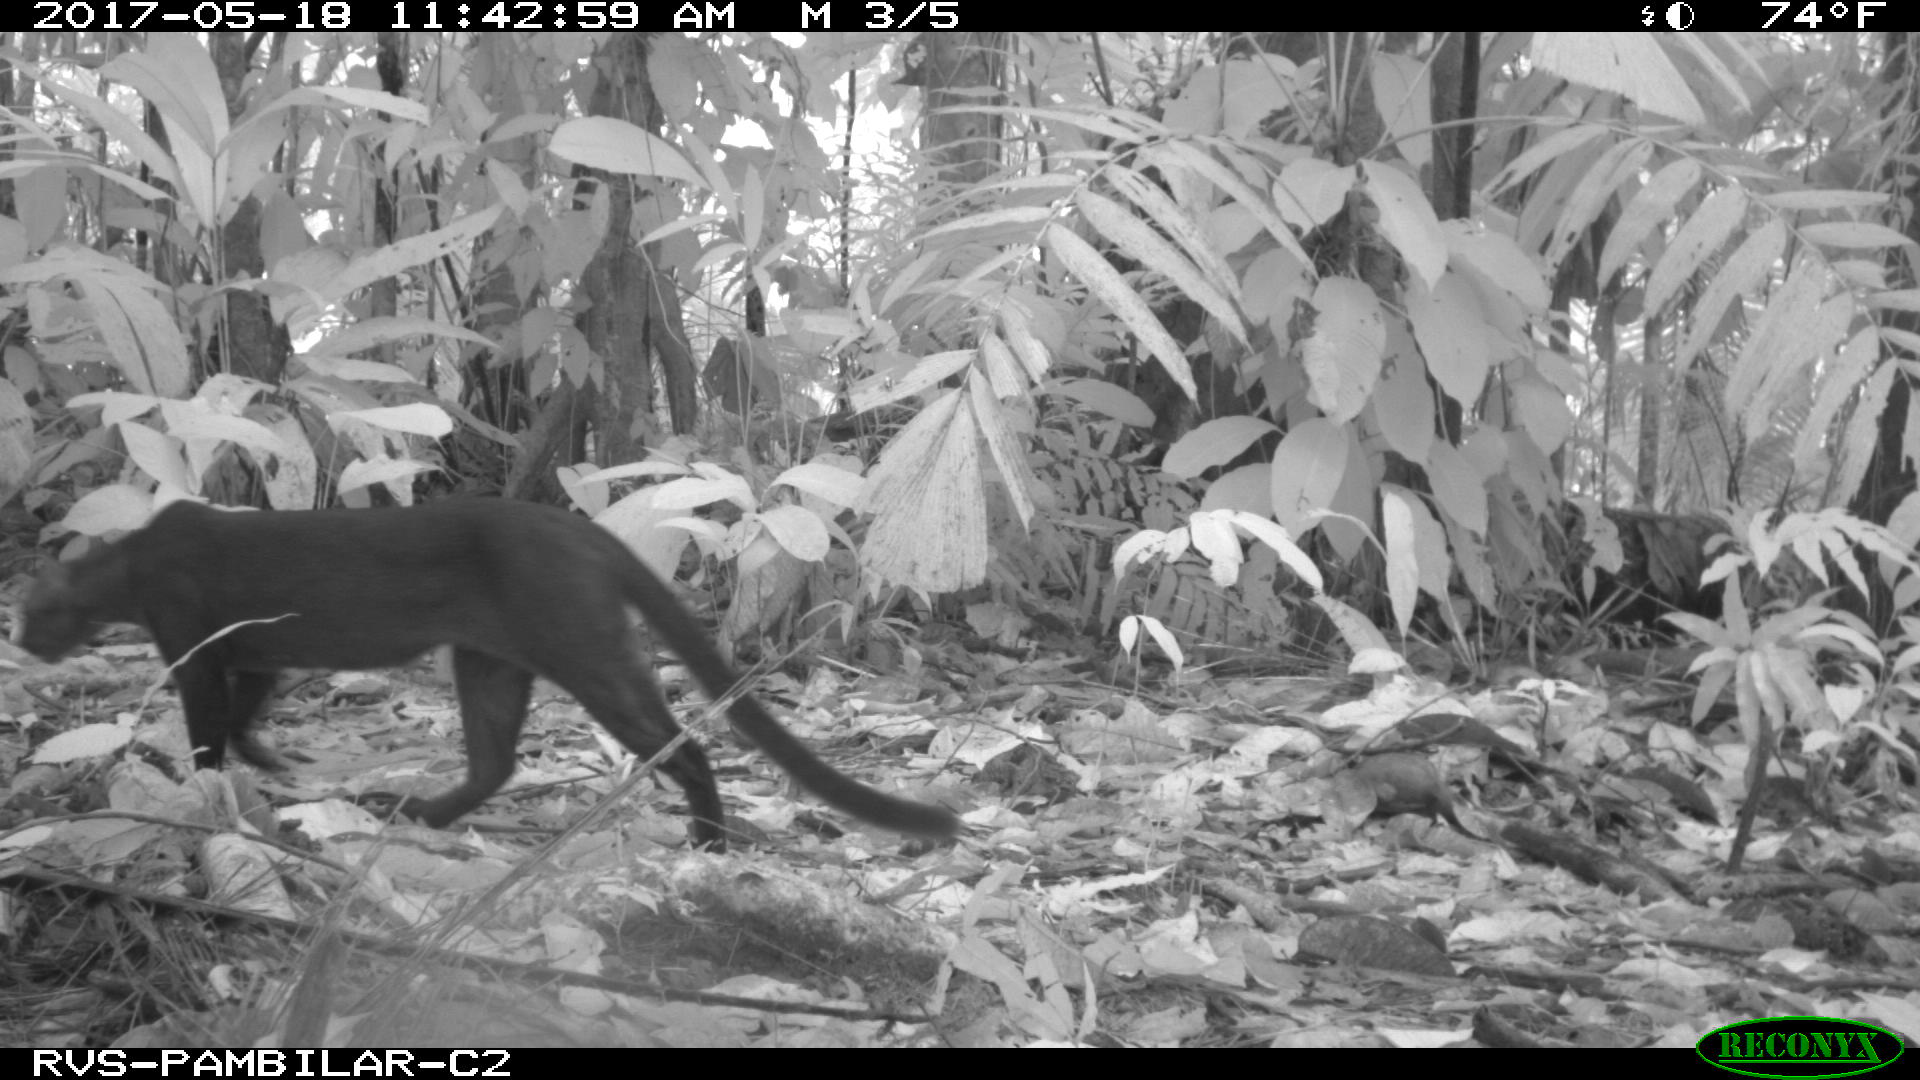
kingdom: Animalia
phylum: Chordata
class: Mammalia
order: Carnivora
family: Felidae
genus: Puma
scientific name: Puma yagouaroundi
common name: Jaguarundi
